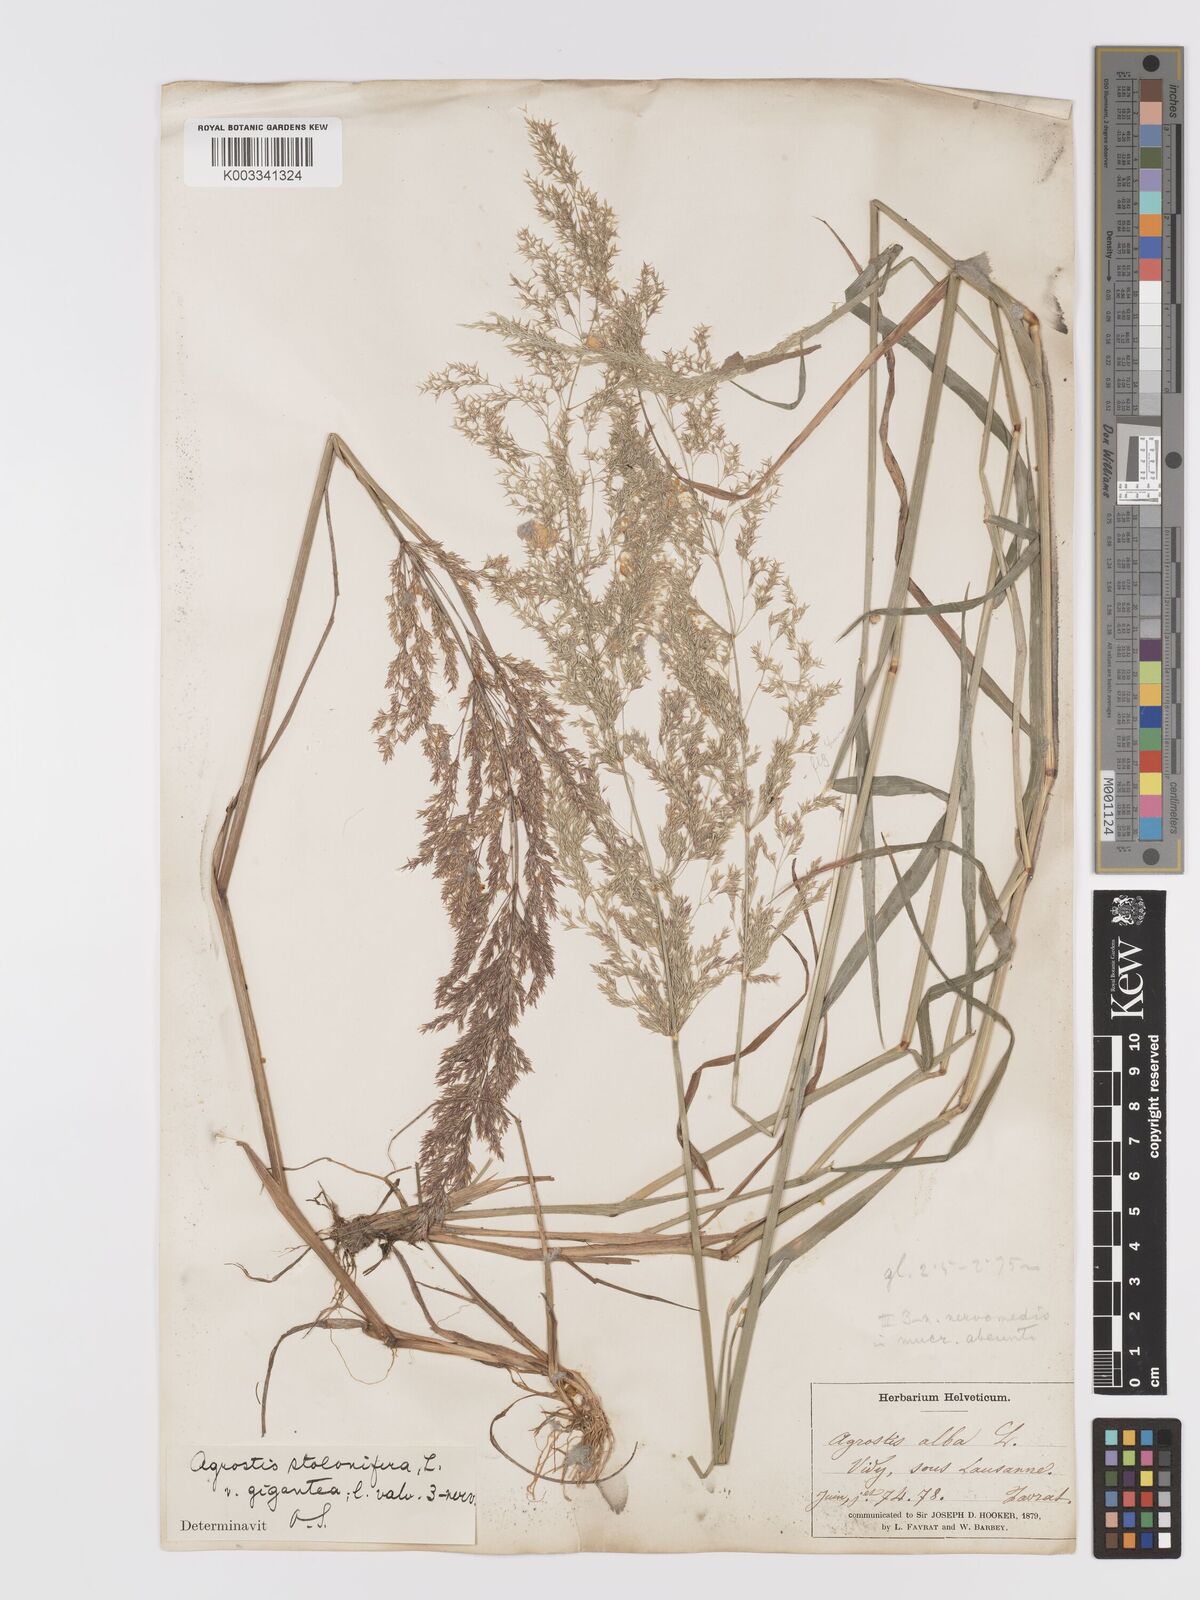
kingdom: Plantae
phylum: Tracheophyta
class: Liliopsida
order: Poales
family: Poaceae
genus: Agrostis
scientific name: Agrostis gigantea
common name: Black bent
